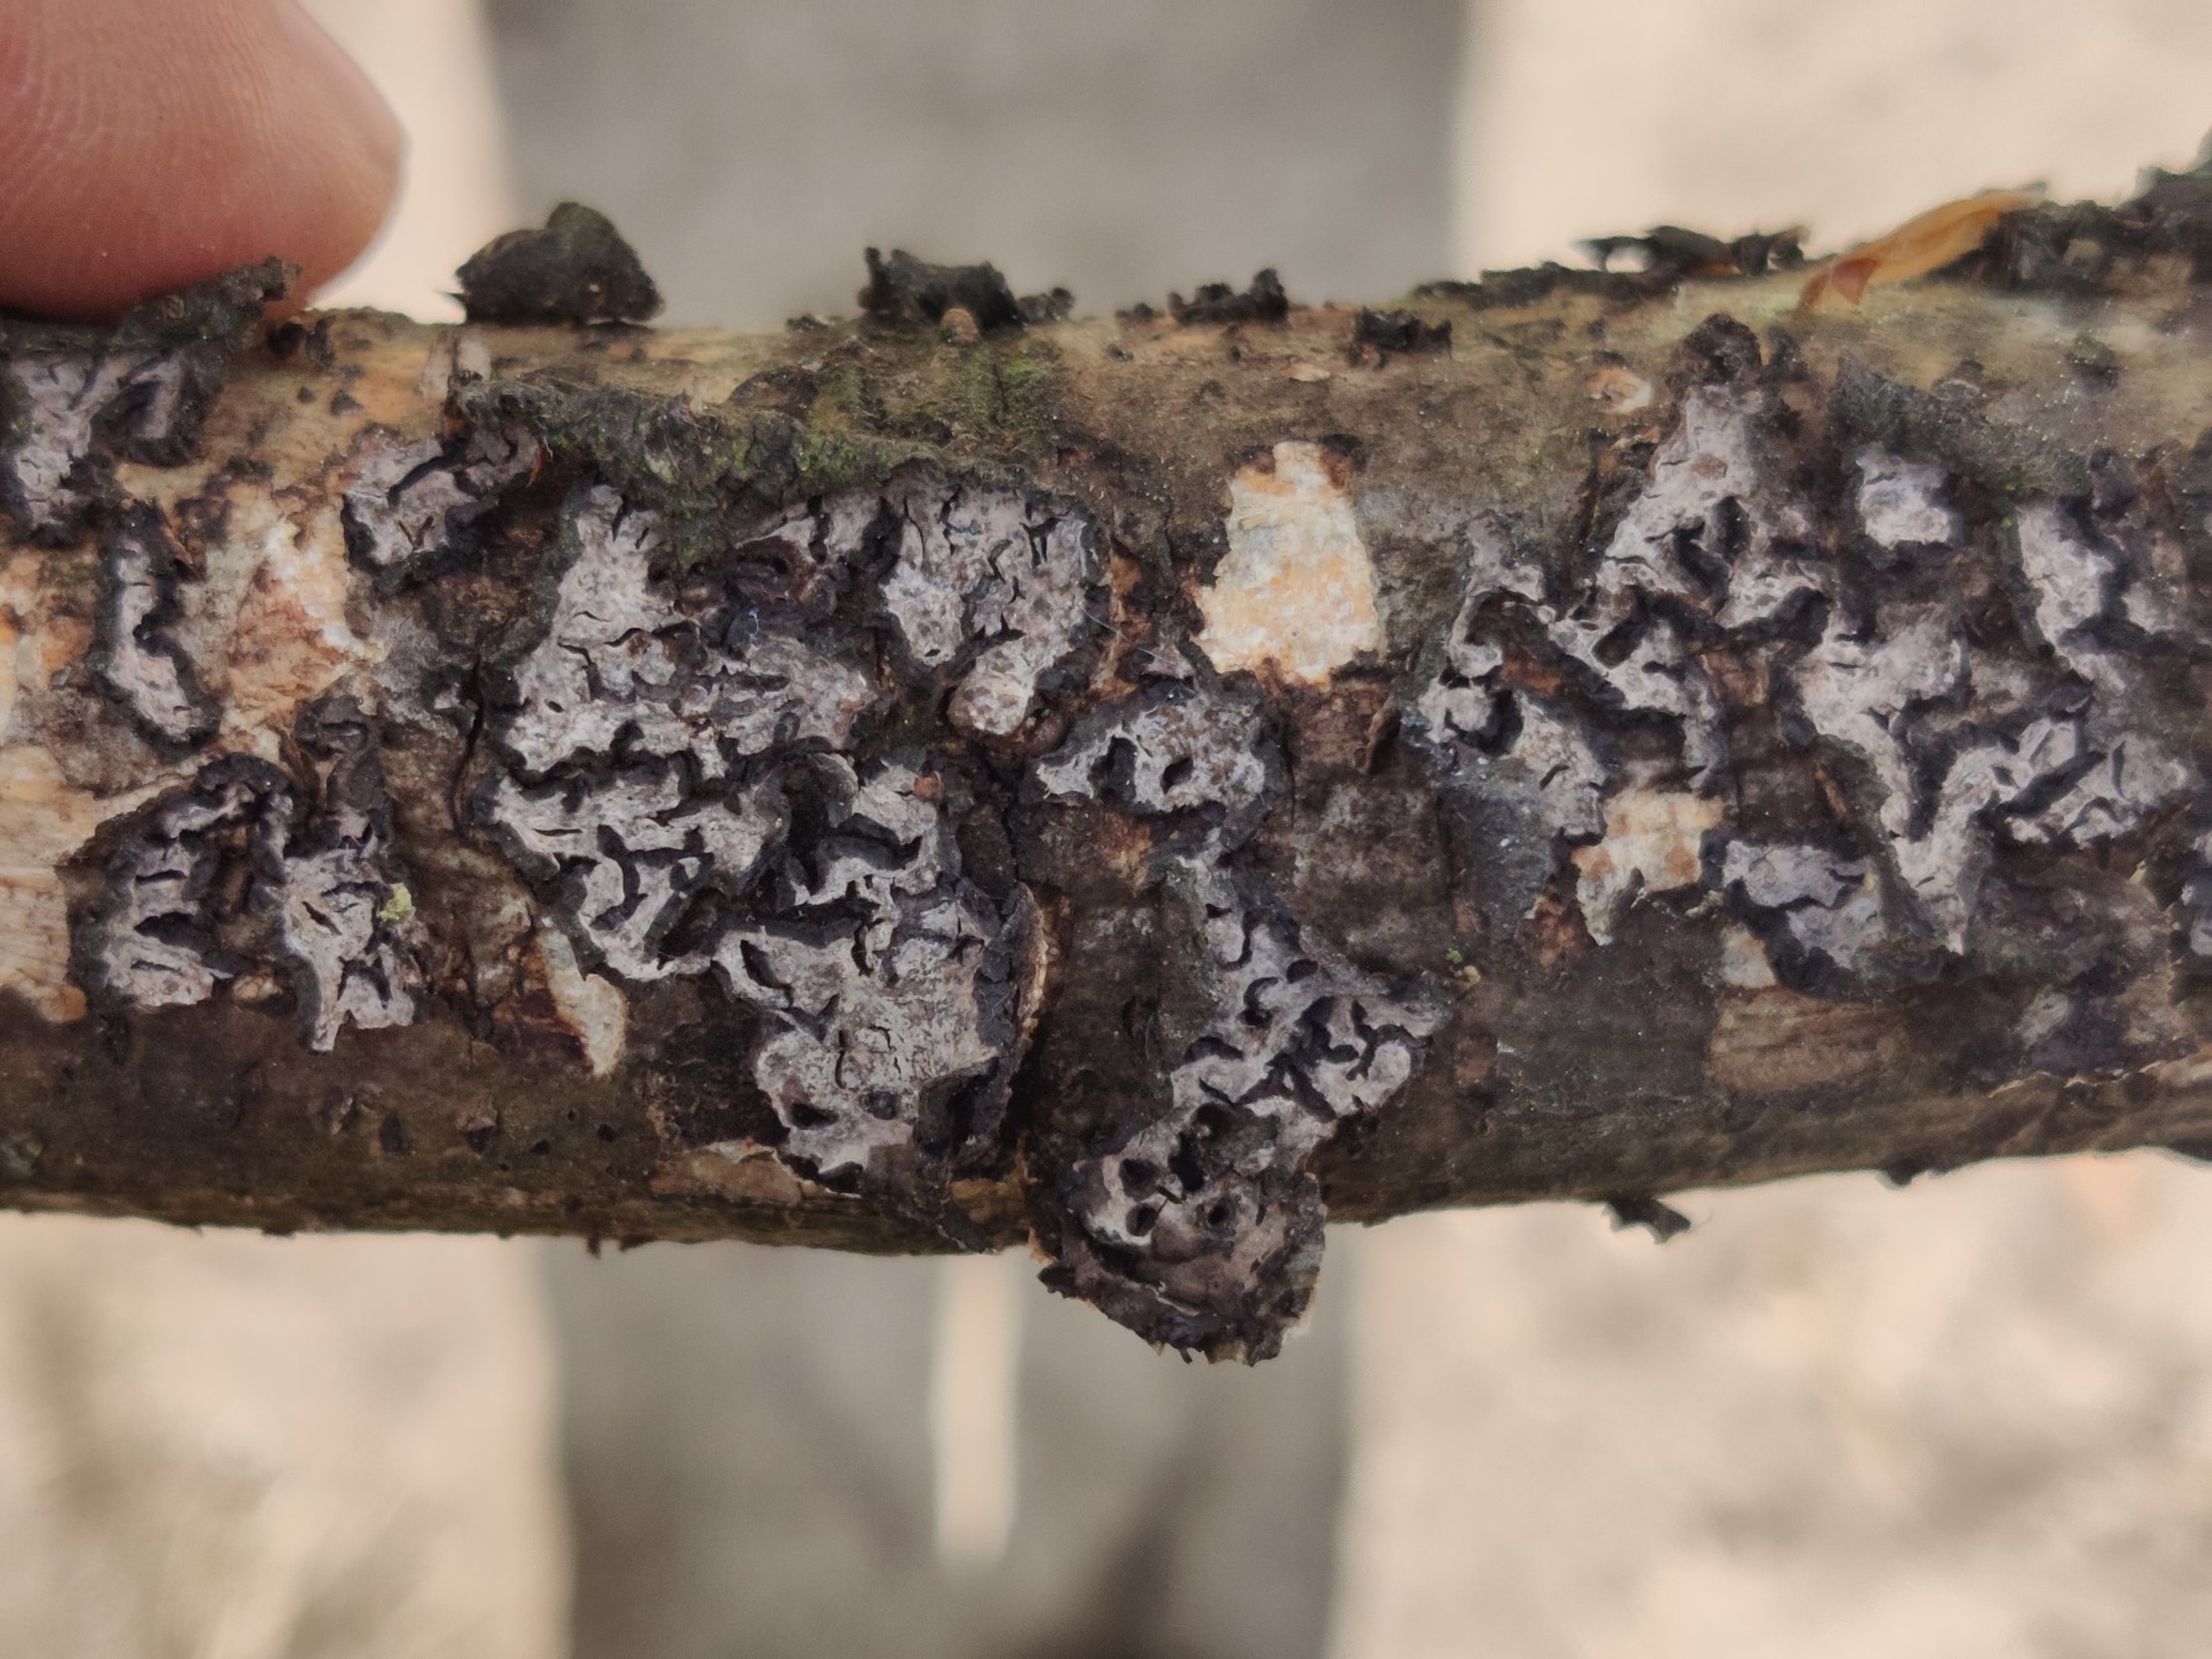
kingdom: Fungi
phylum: Basidiomycota
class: Agaricomycetes
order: Russulales
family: Peniophoraceae
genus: Peniophora
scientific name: Peniophora quercina
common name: Ege-voksskind
